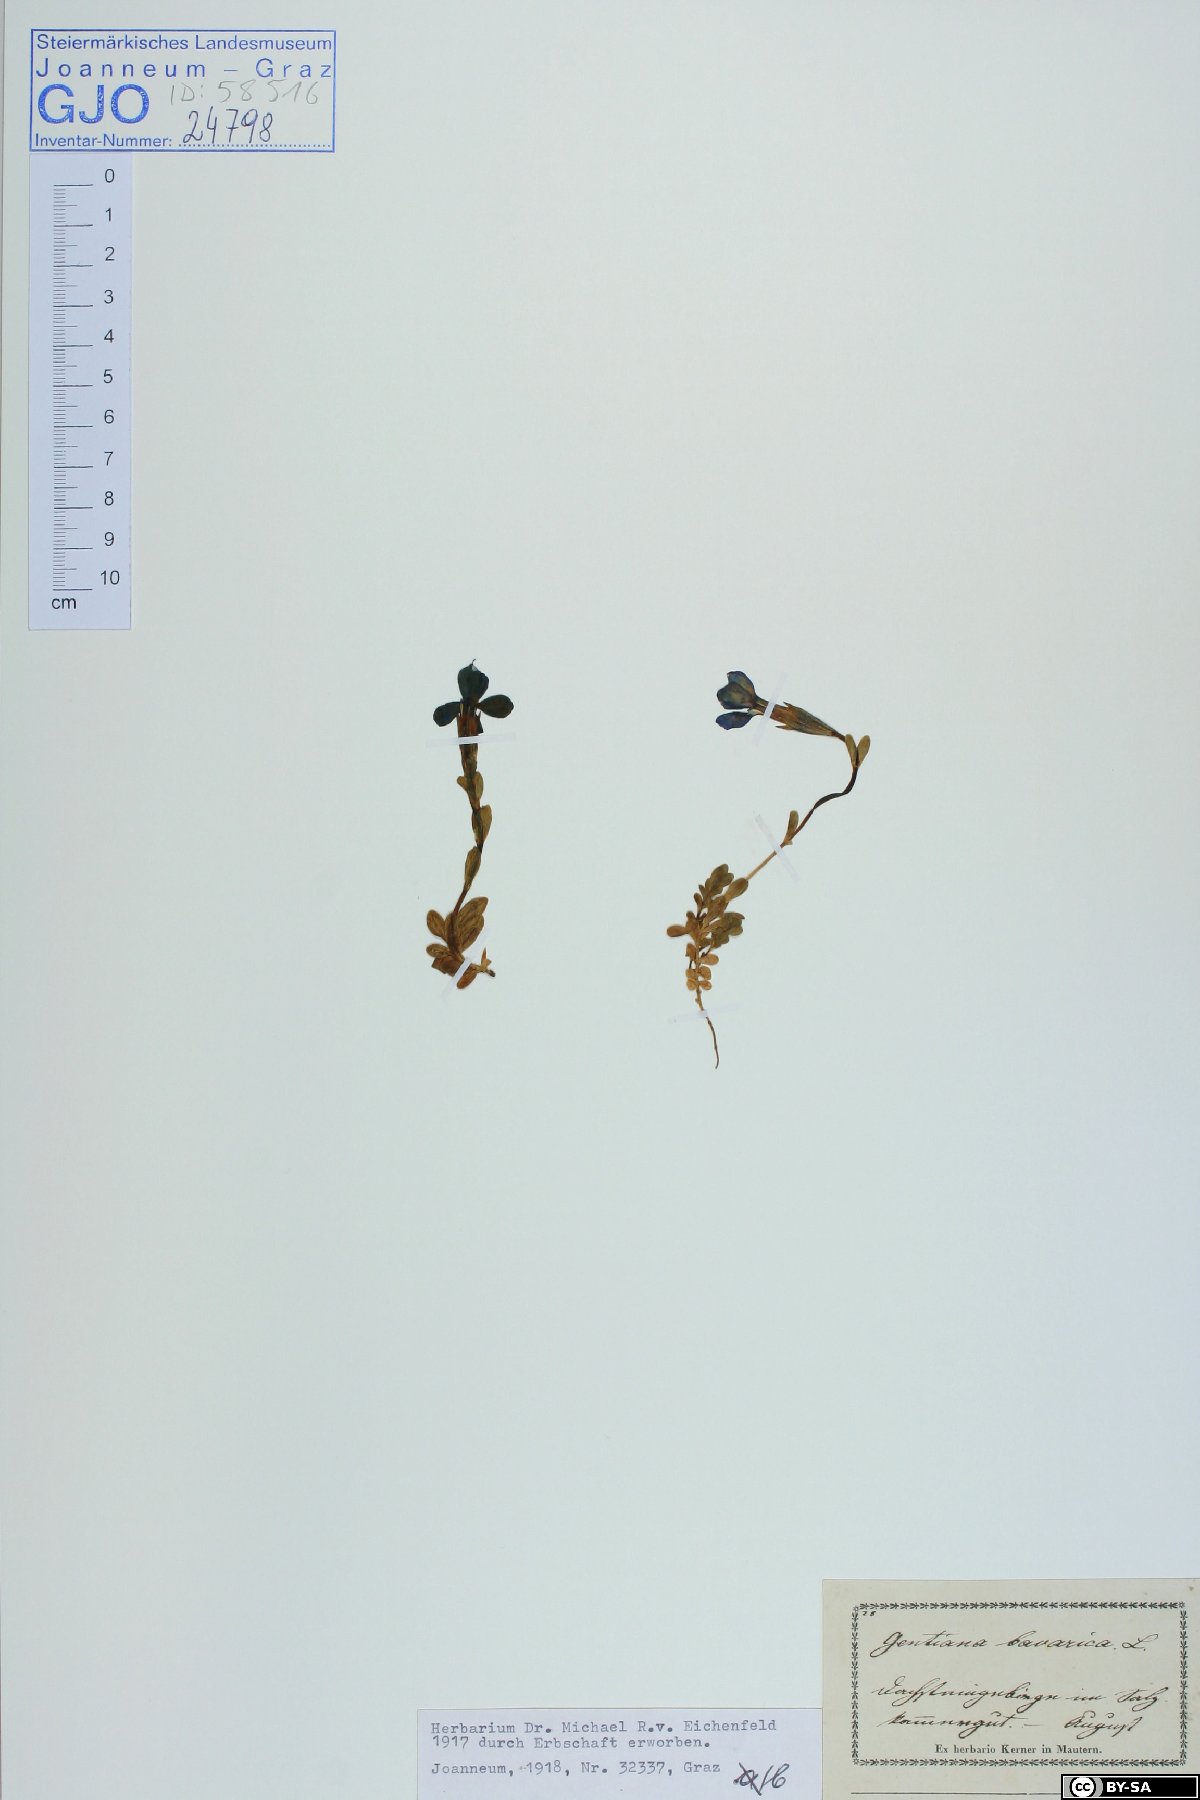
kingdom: Plantae
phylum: Tracheophyta
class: Magnoliopsida
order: Gentianales
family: Gentianaceae
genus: Gentiana
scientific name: Gentiana bavarica
